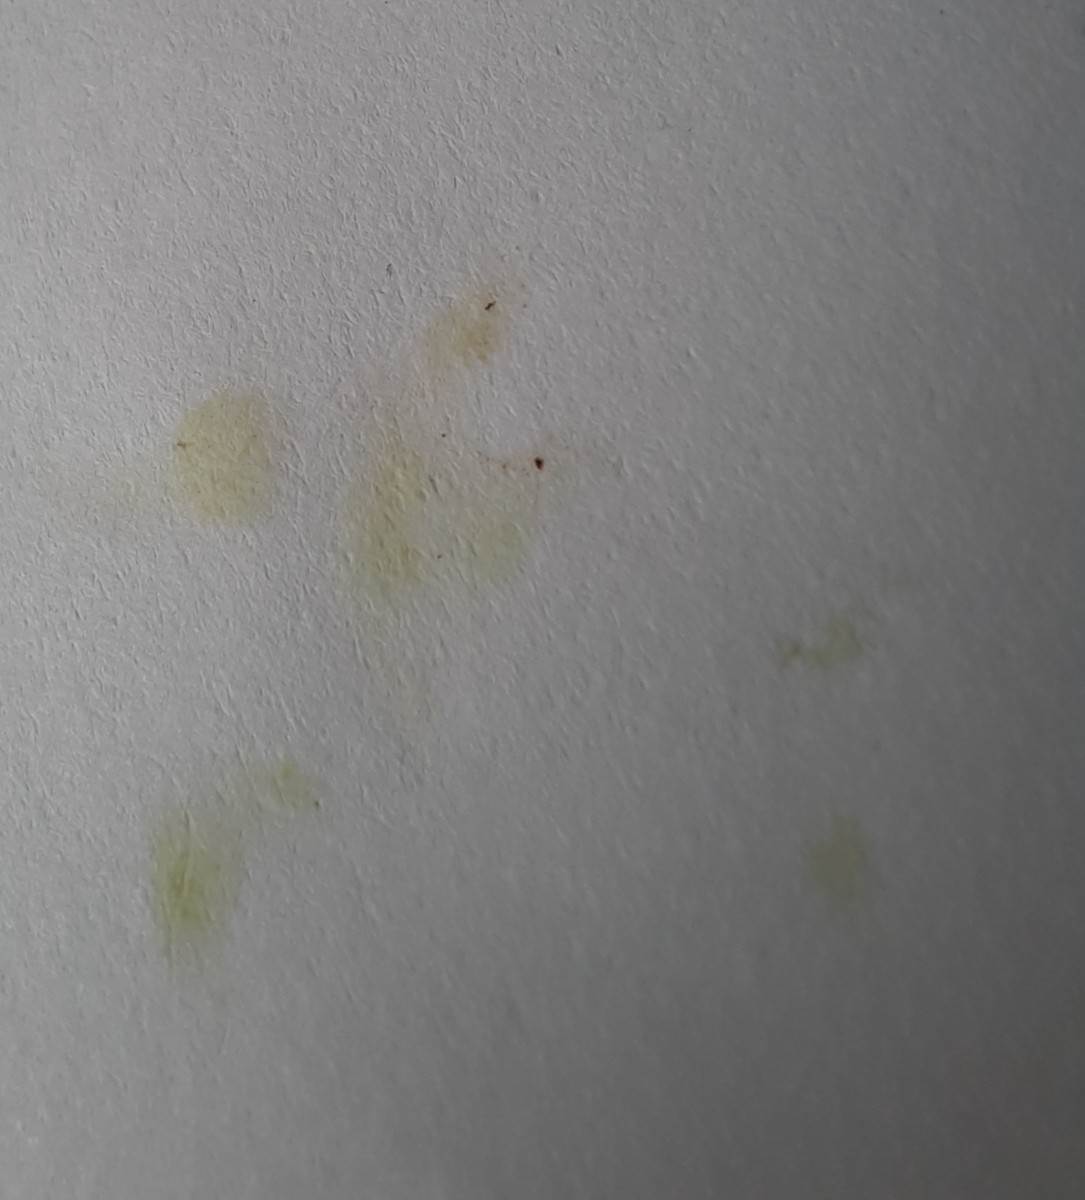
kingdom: Fungi
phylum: Basidiomycota
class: Agaricomycetes
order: Russulales
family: Russulaceae
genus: Lactarius
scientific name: Lactarius lacunarum
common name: sump-mælkehat
